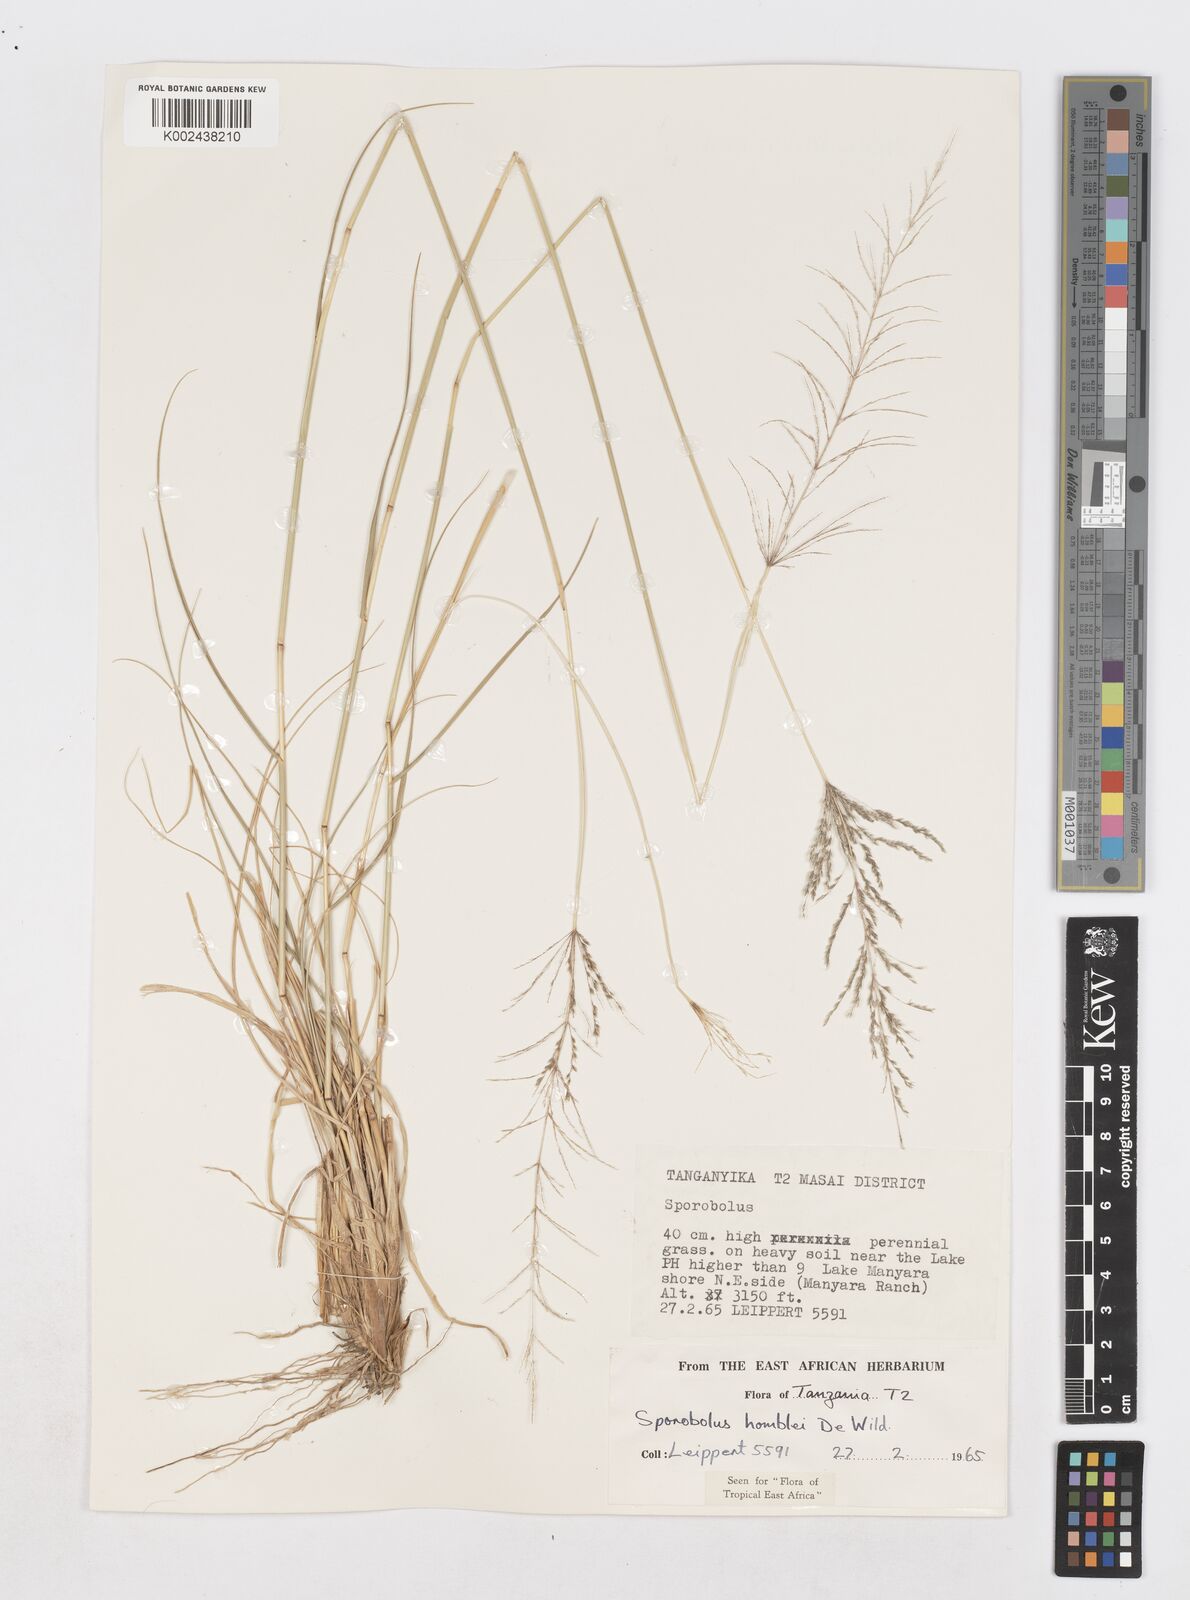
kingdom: Plantae
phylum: Tracheophyta
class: Liliopsida
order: Poales
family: Poaceae
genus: Sporobolus
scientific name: Sporobolus ioclados
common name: Pan dropseed
